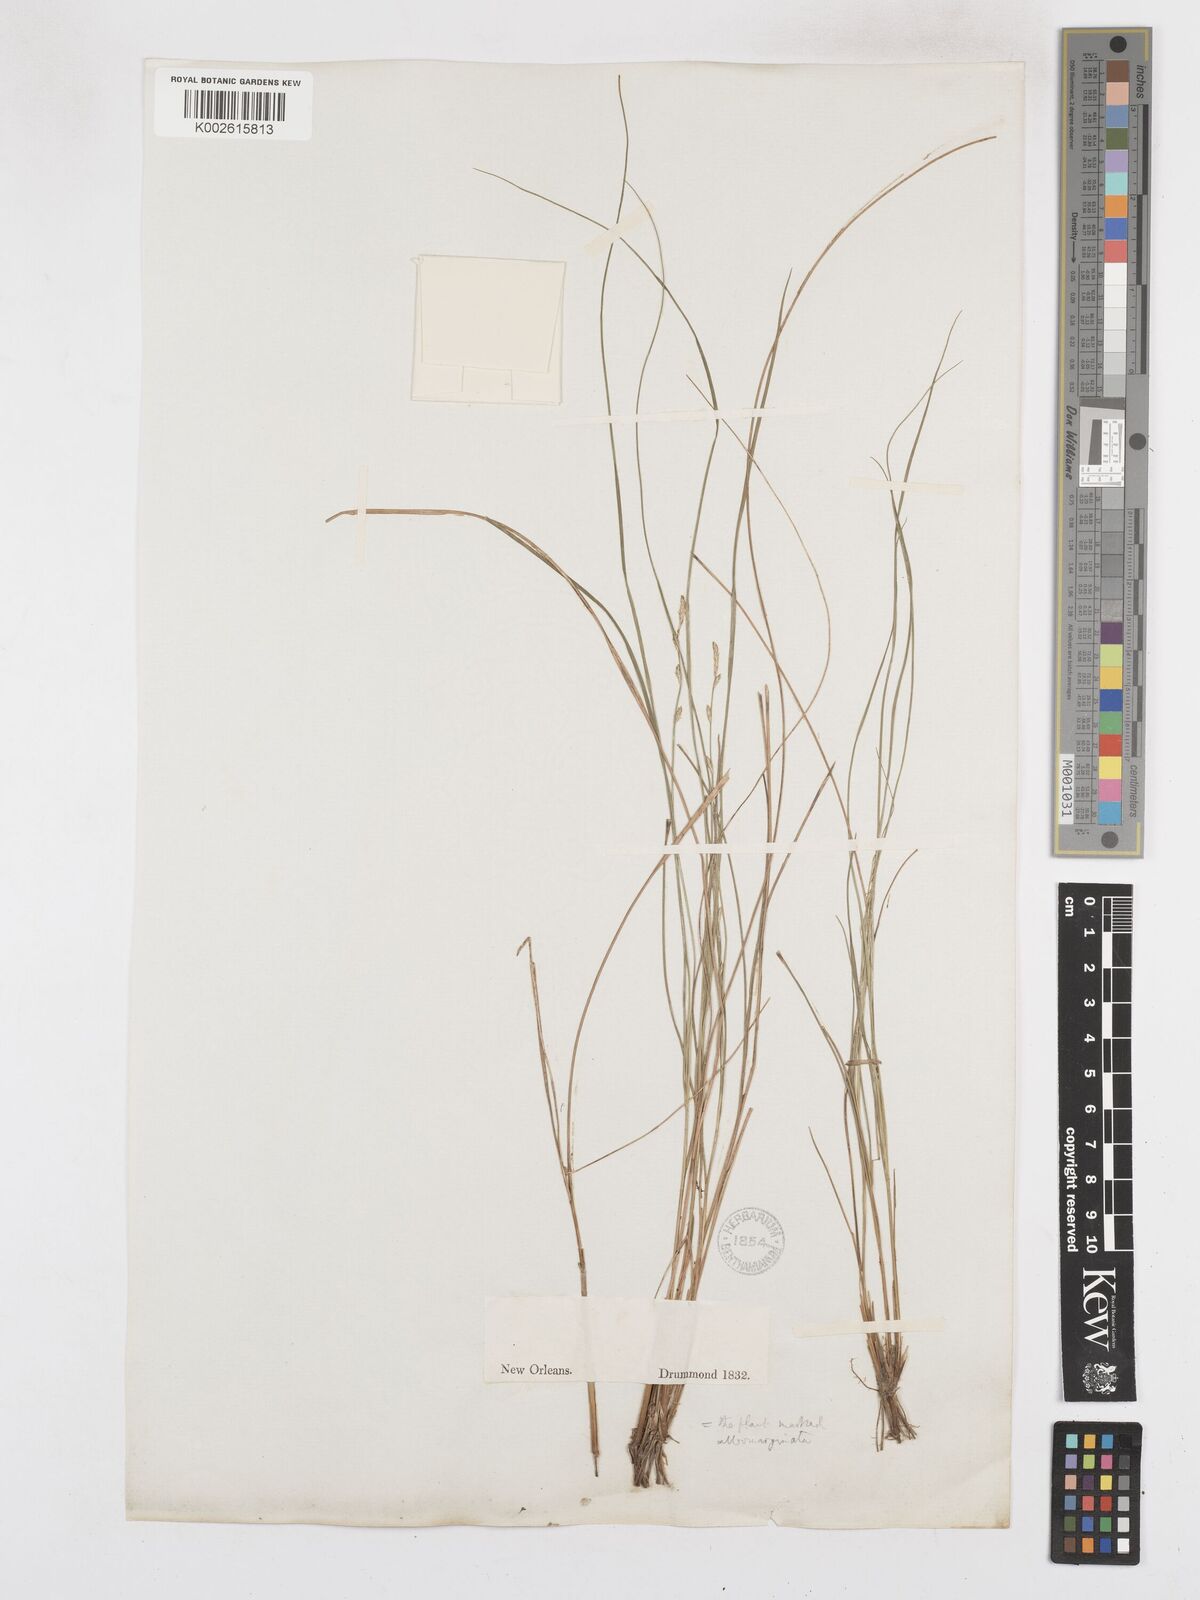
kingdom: Plantae
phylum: Tracheophyta
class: Liliopsida
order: Poales
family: Cyperaceae
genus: Carex
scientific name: Carex praticola
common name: Large-fruited oval sedge
